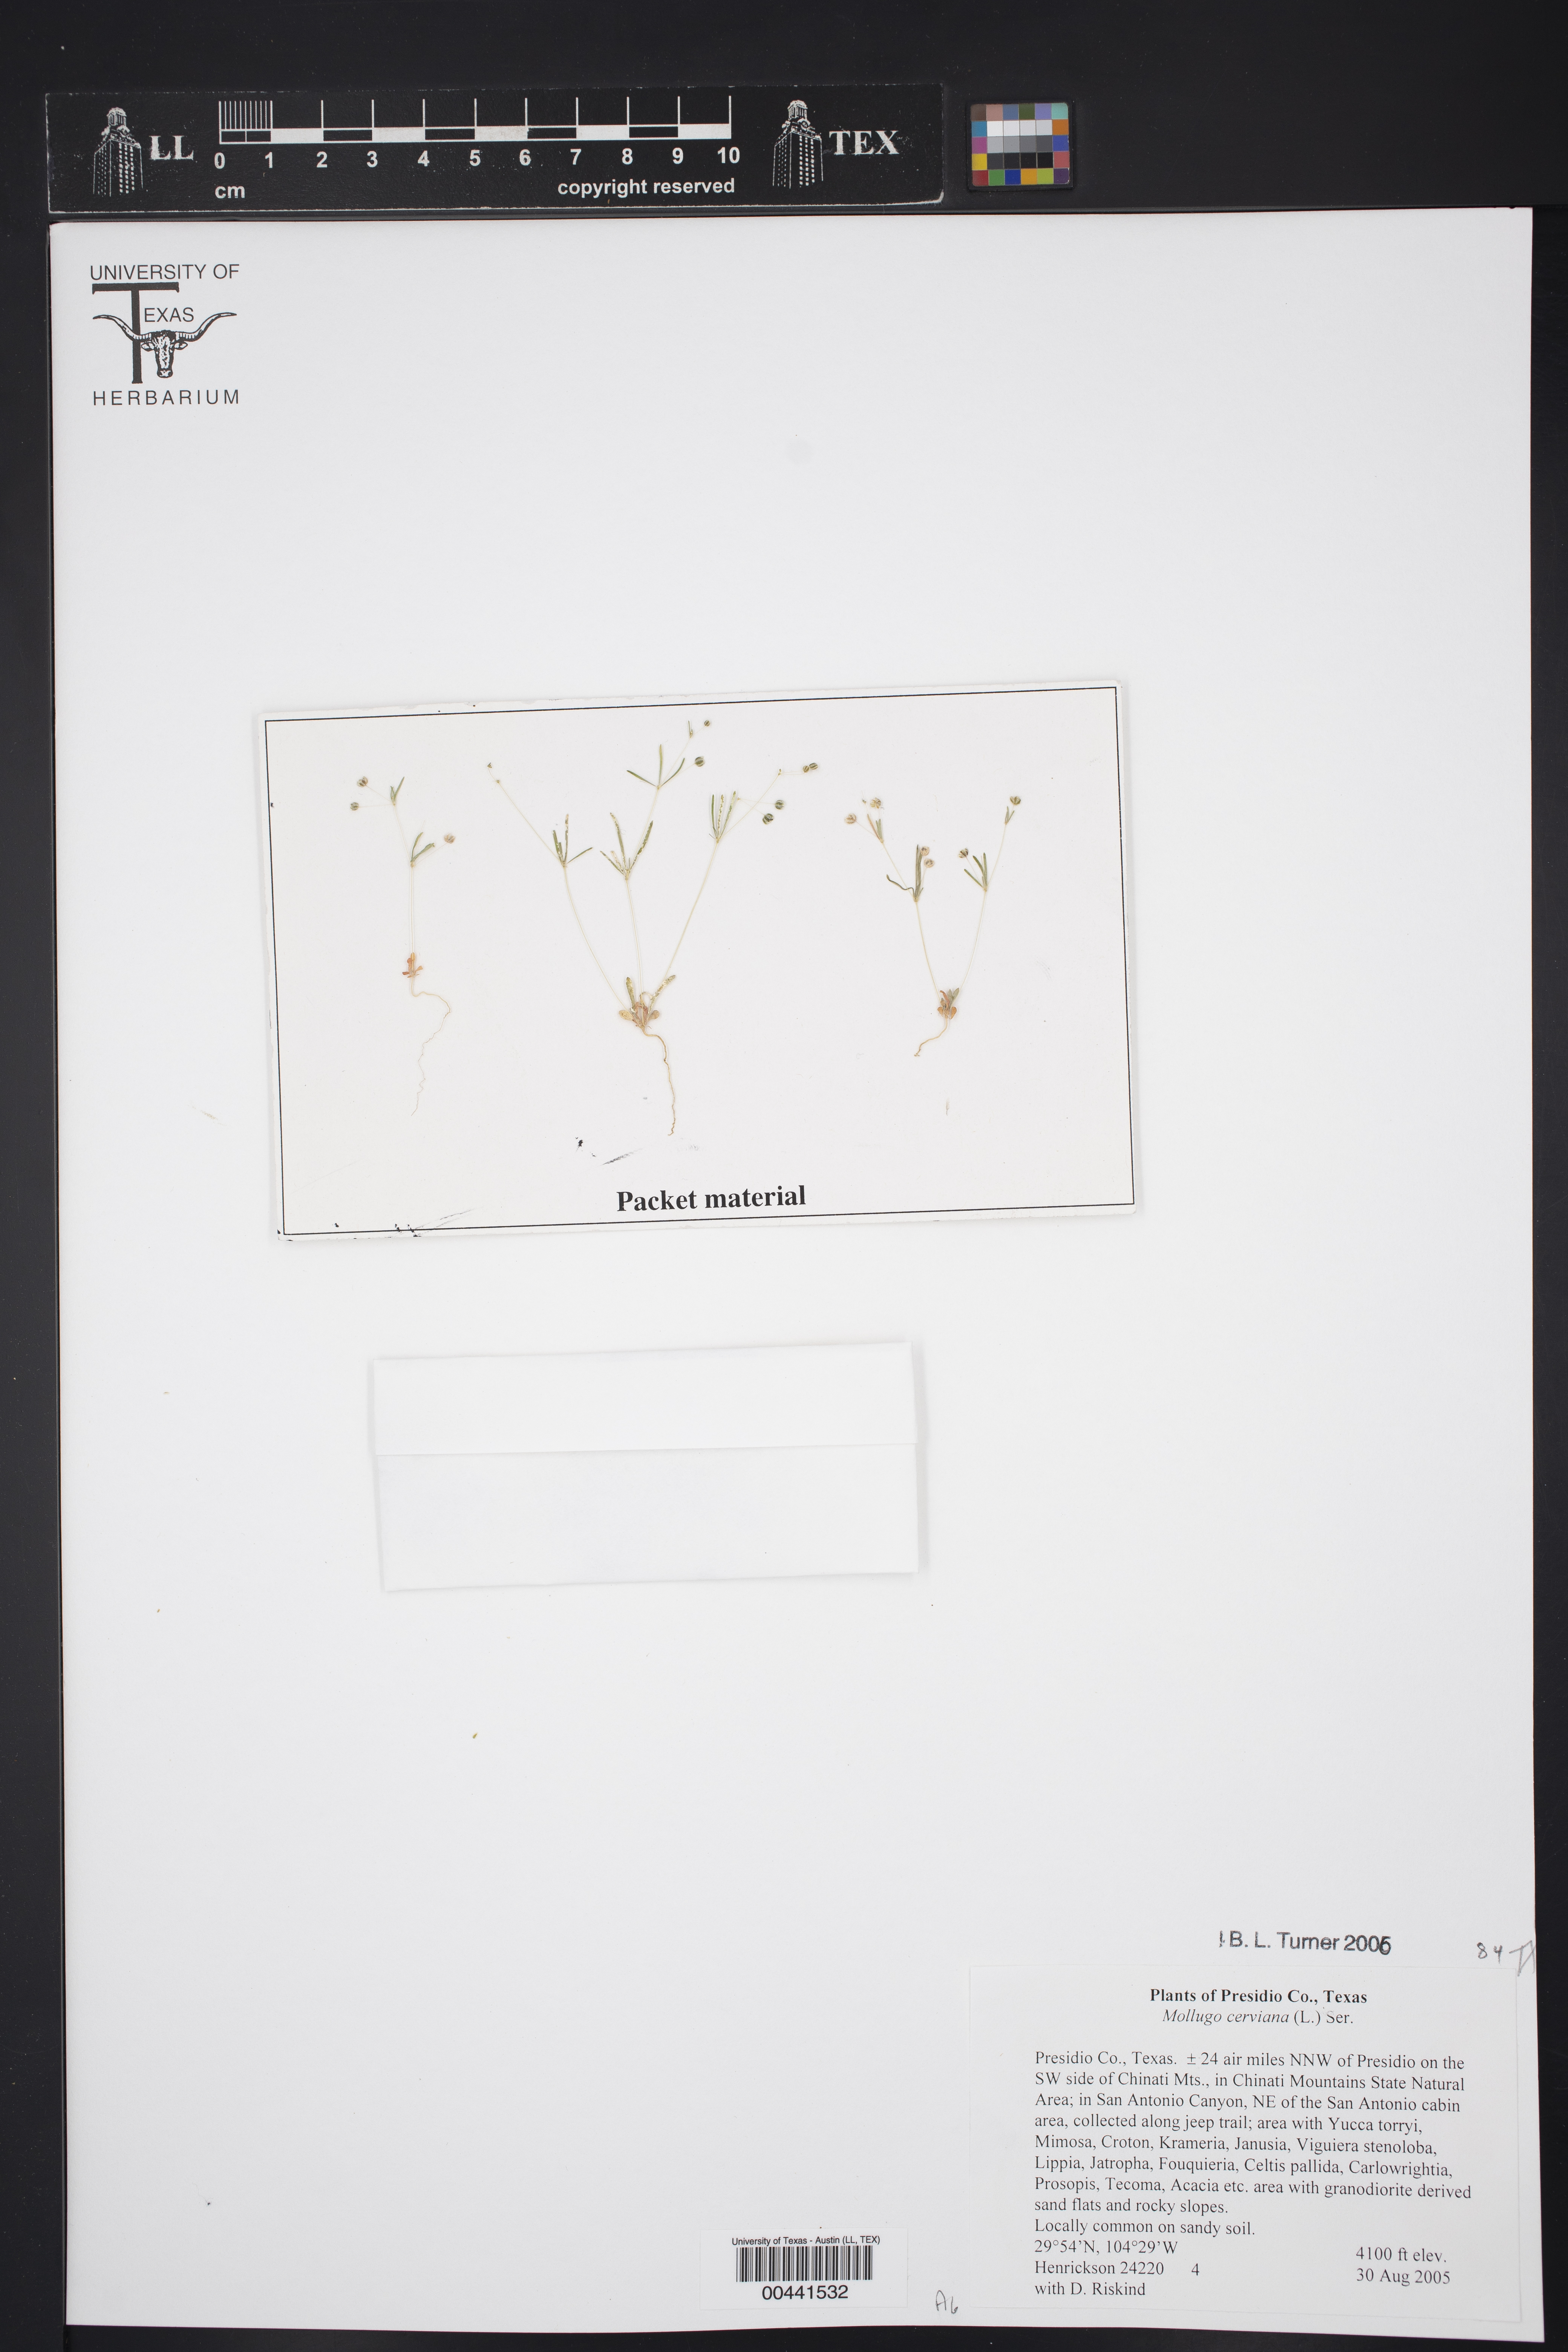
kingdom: Plantae
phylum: Tracheophyta
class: Magnoliopsida
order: Caryophyllales
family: Molluginaceae
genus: Hypertelis
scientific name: Hypertelis cerviana
